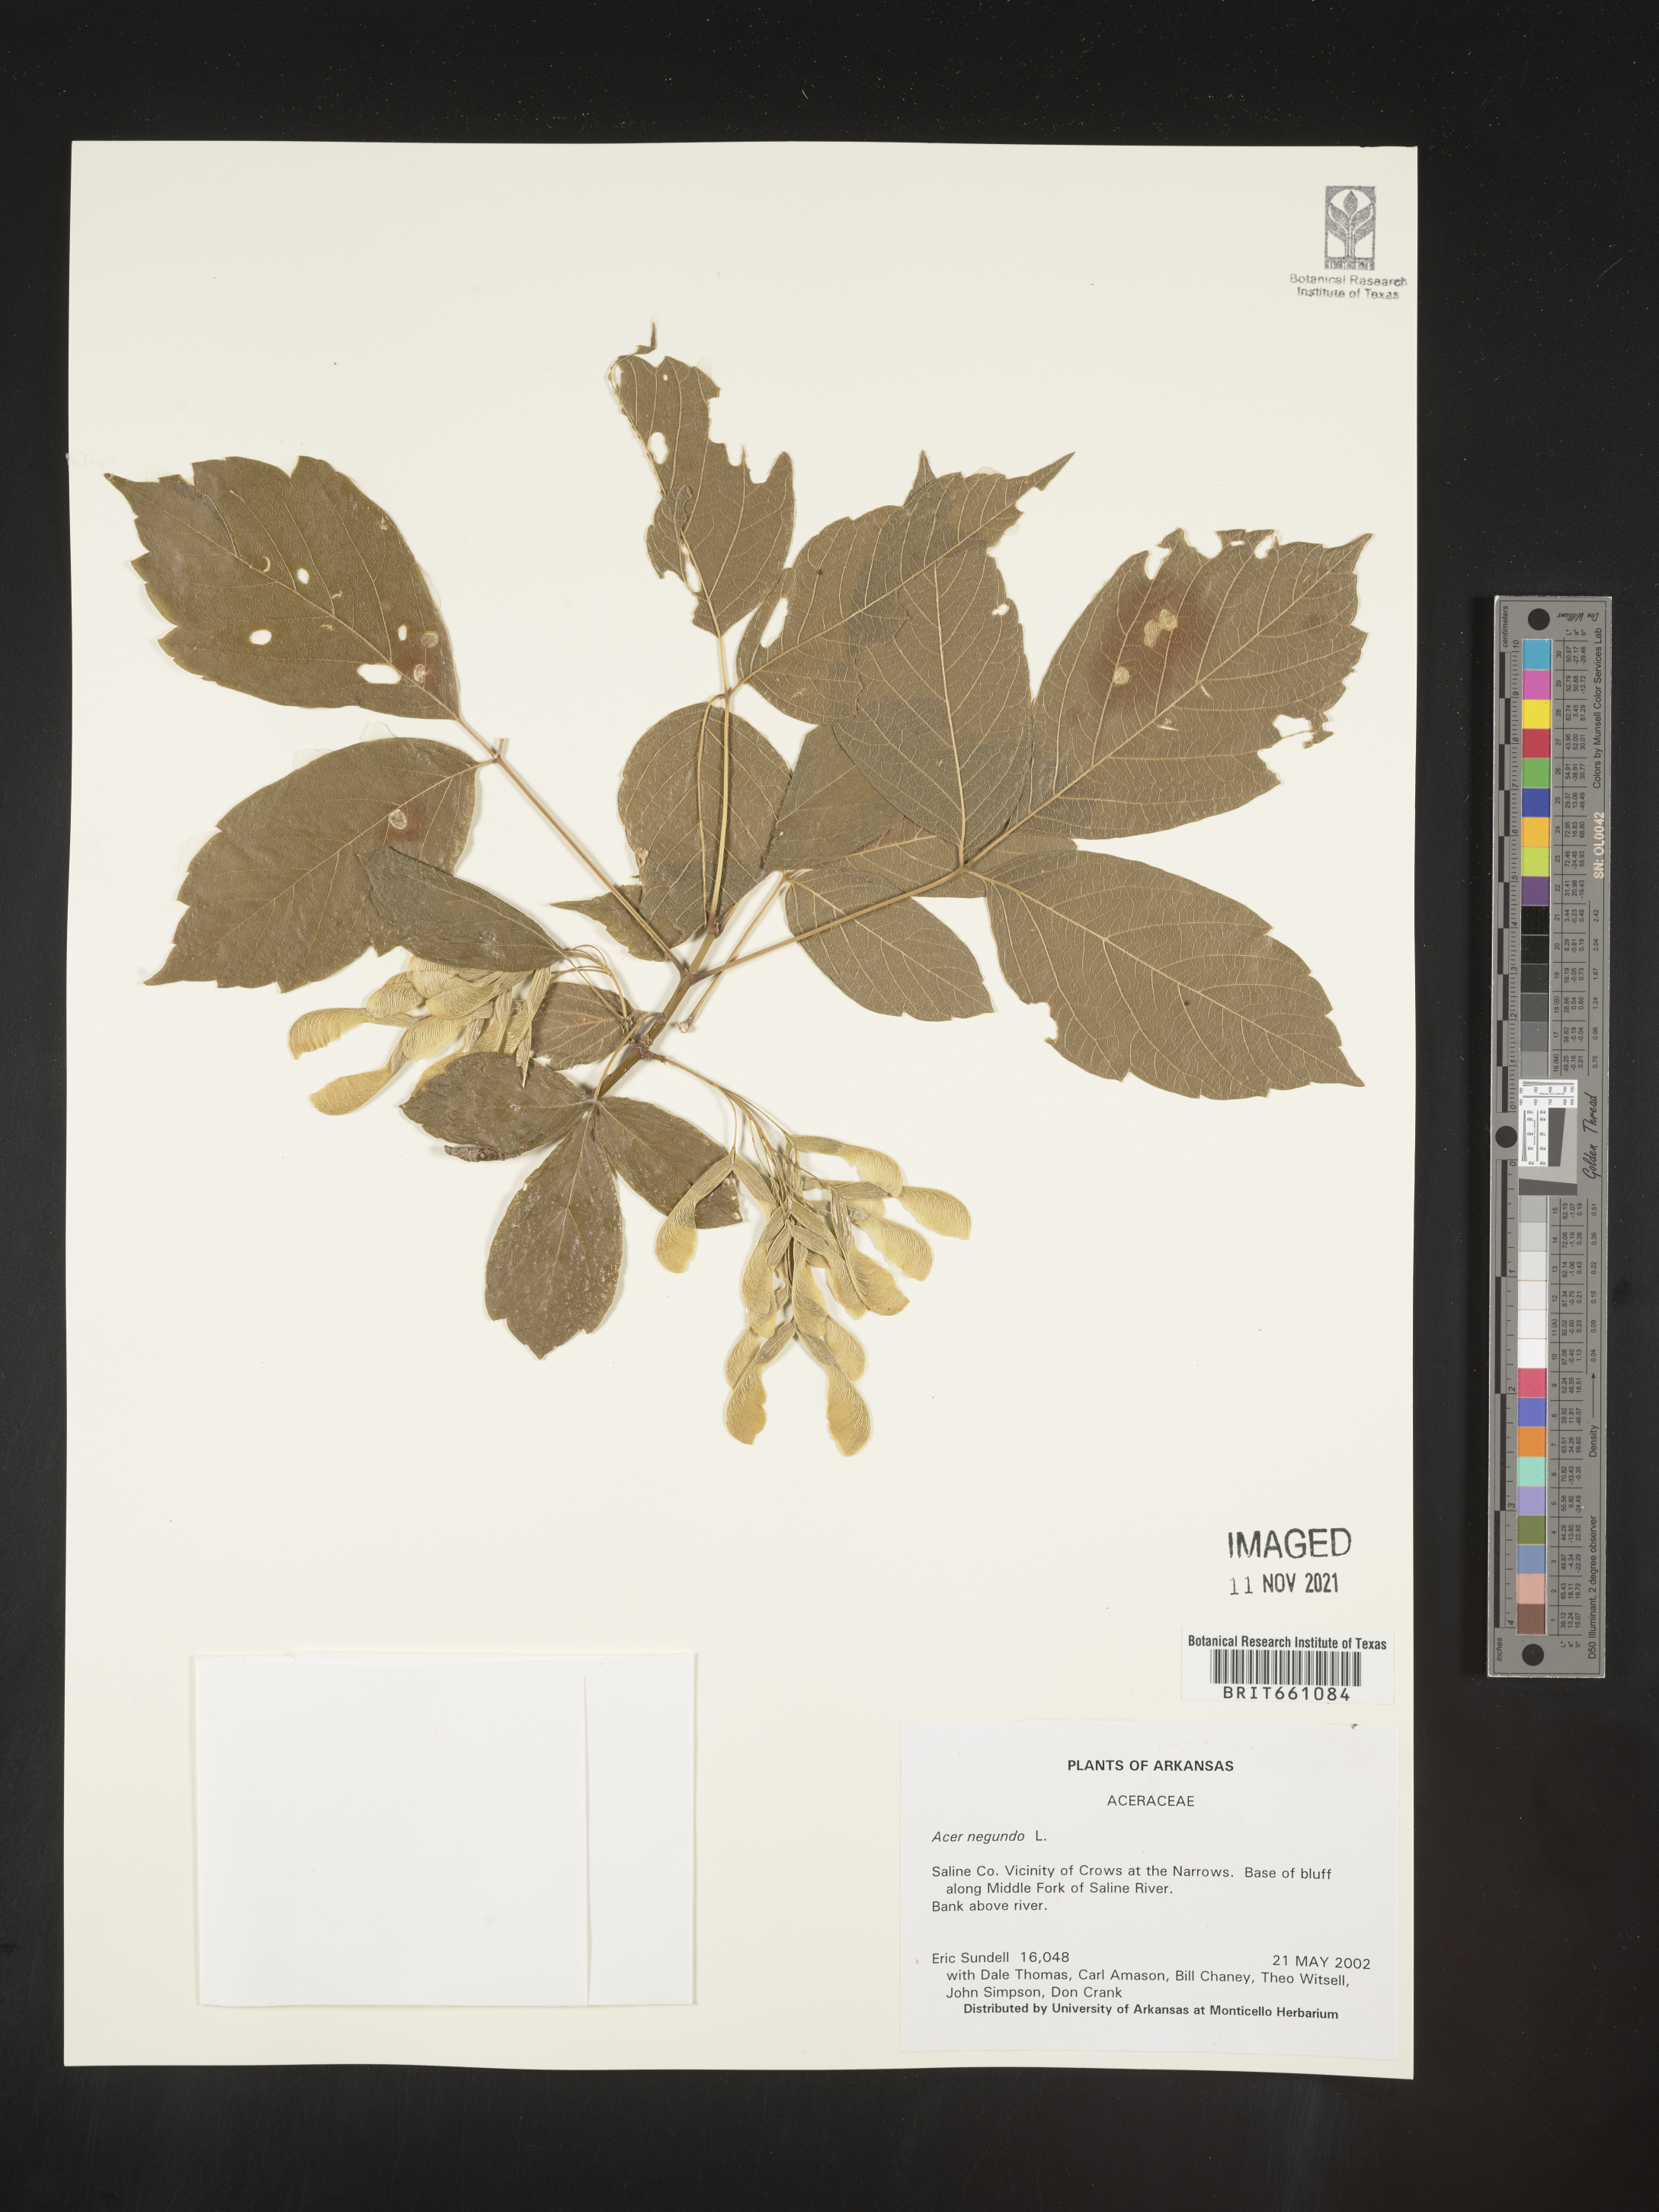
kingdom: Plantae
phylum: Tracheophyta
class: Magnoliopsida
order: Sapindales
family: Sapindaceae
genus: Acer
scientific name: Acer negundo
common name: Ashleaf maple
